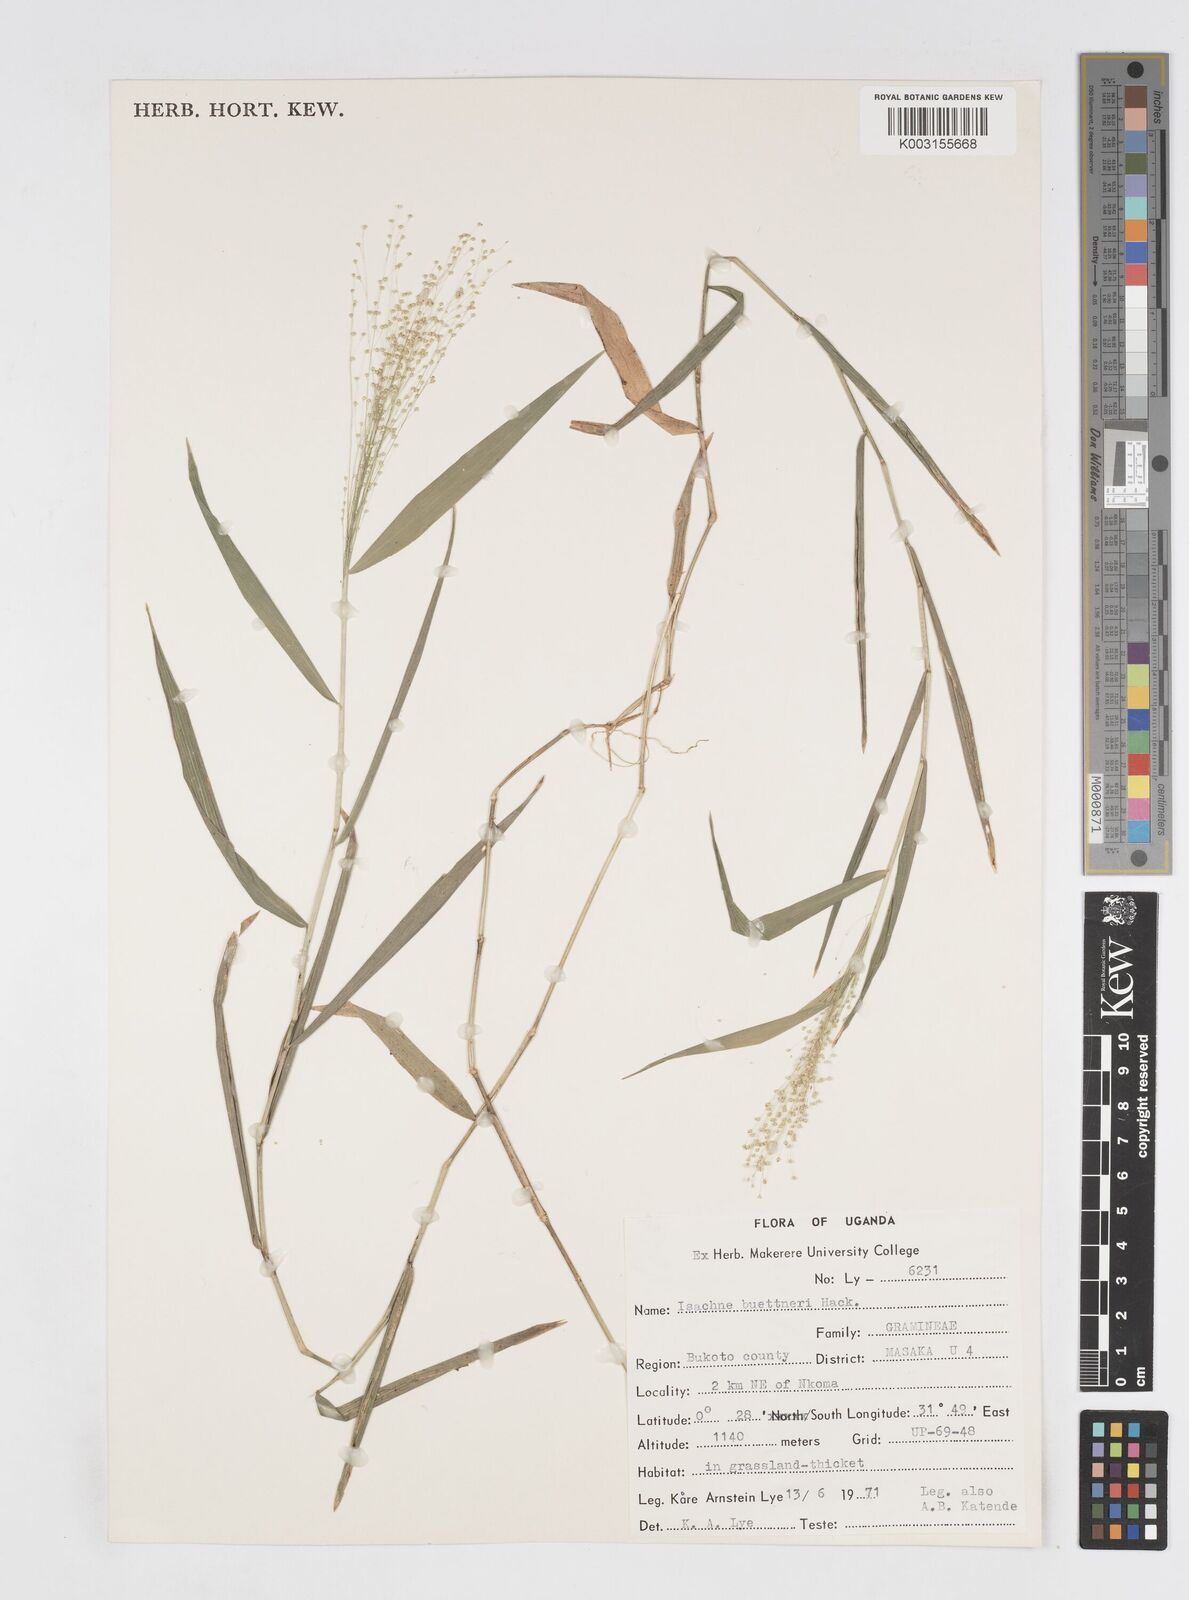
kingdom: Plantae
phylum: Tracheophyta
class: Liliopsida
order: Poales
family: Poaceae
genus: Isachne
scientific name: Isachne albens
